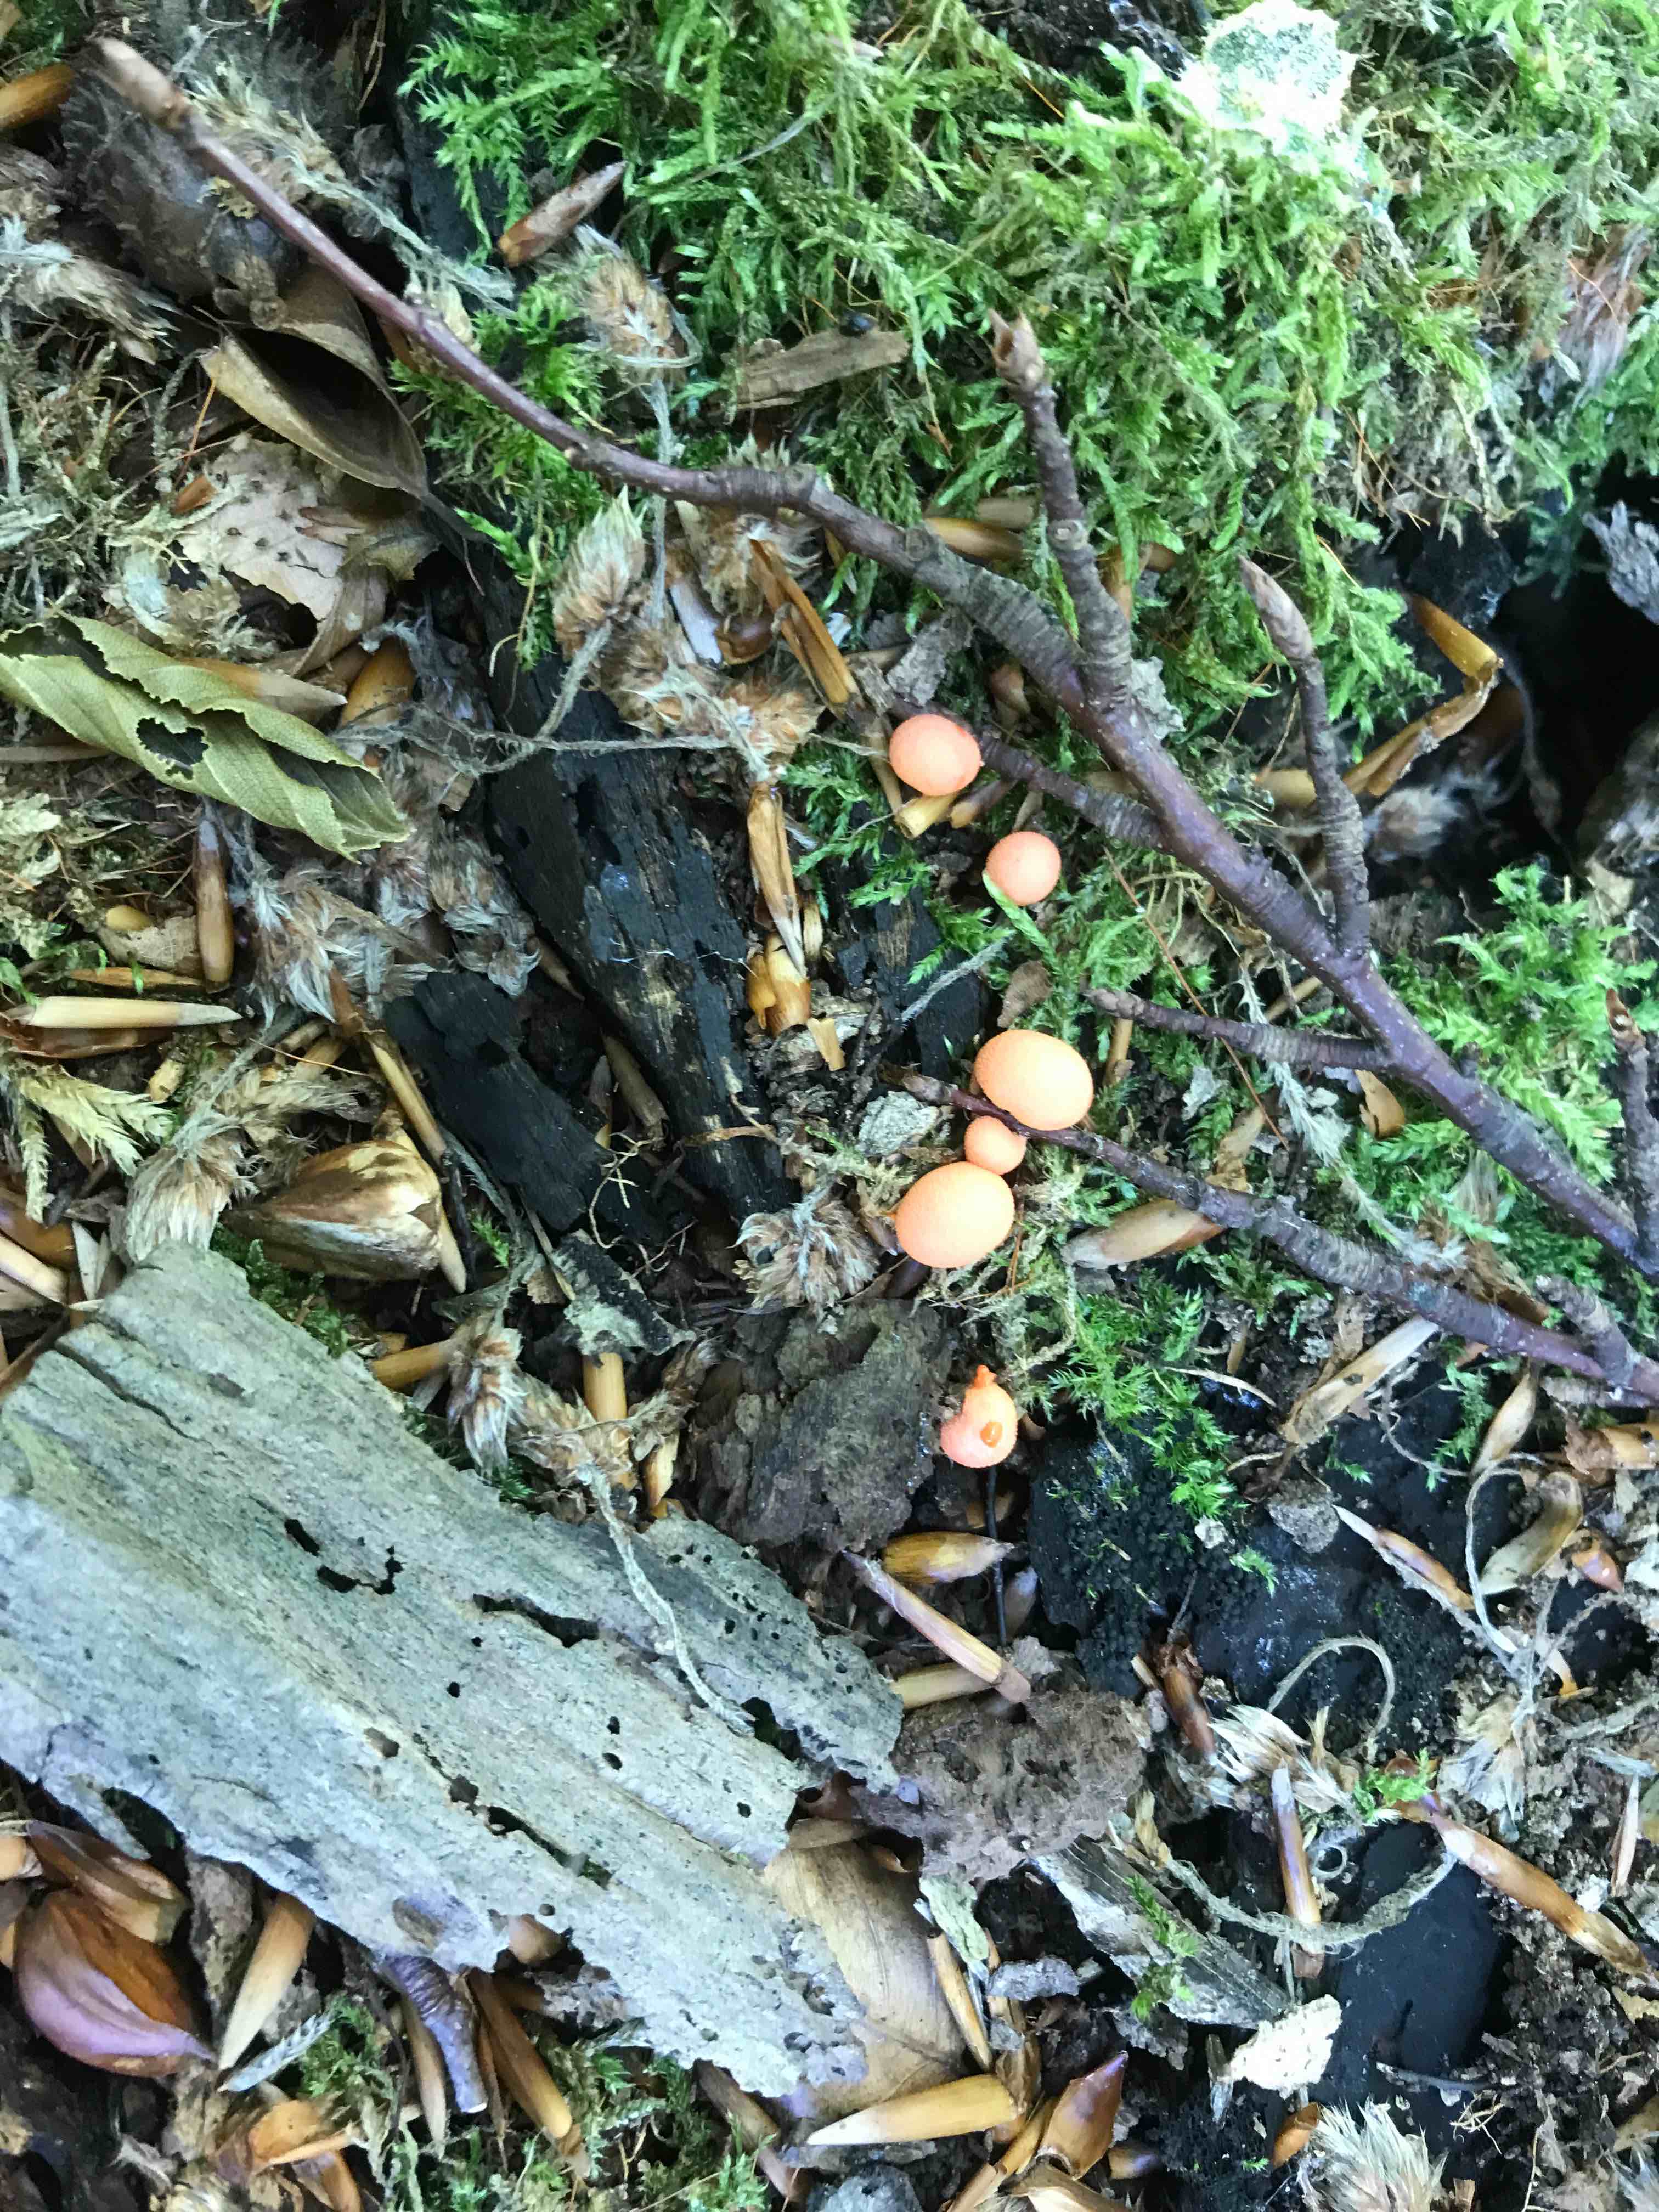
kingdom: Protozoa
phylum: Mycetozoa
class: Myxomycetes
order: Cribrariales
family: Tubiferaceae
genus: Lycogala
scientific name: Lycogala epidendrum
